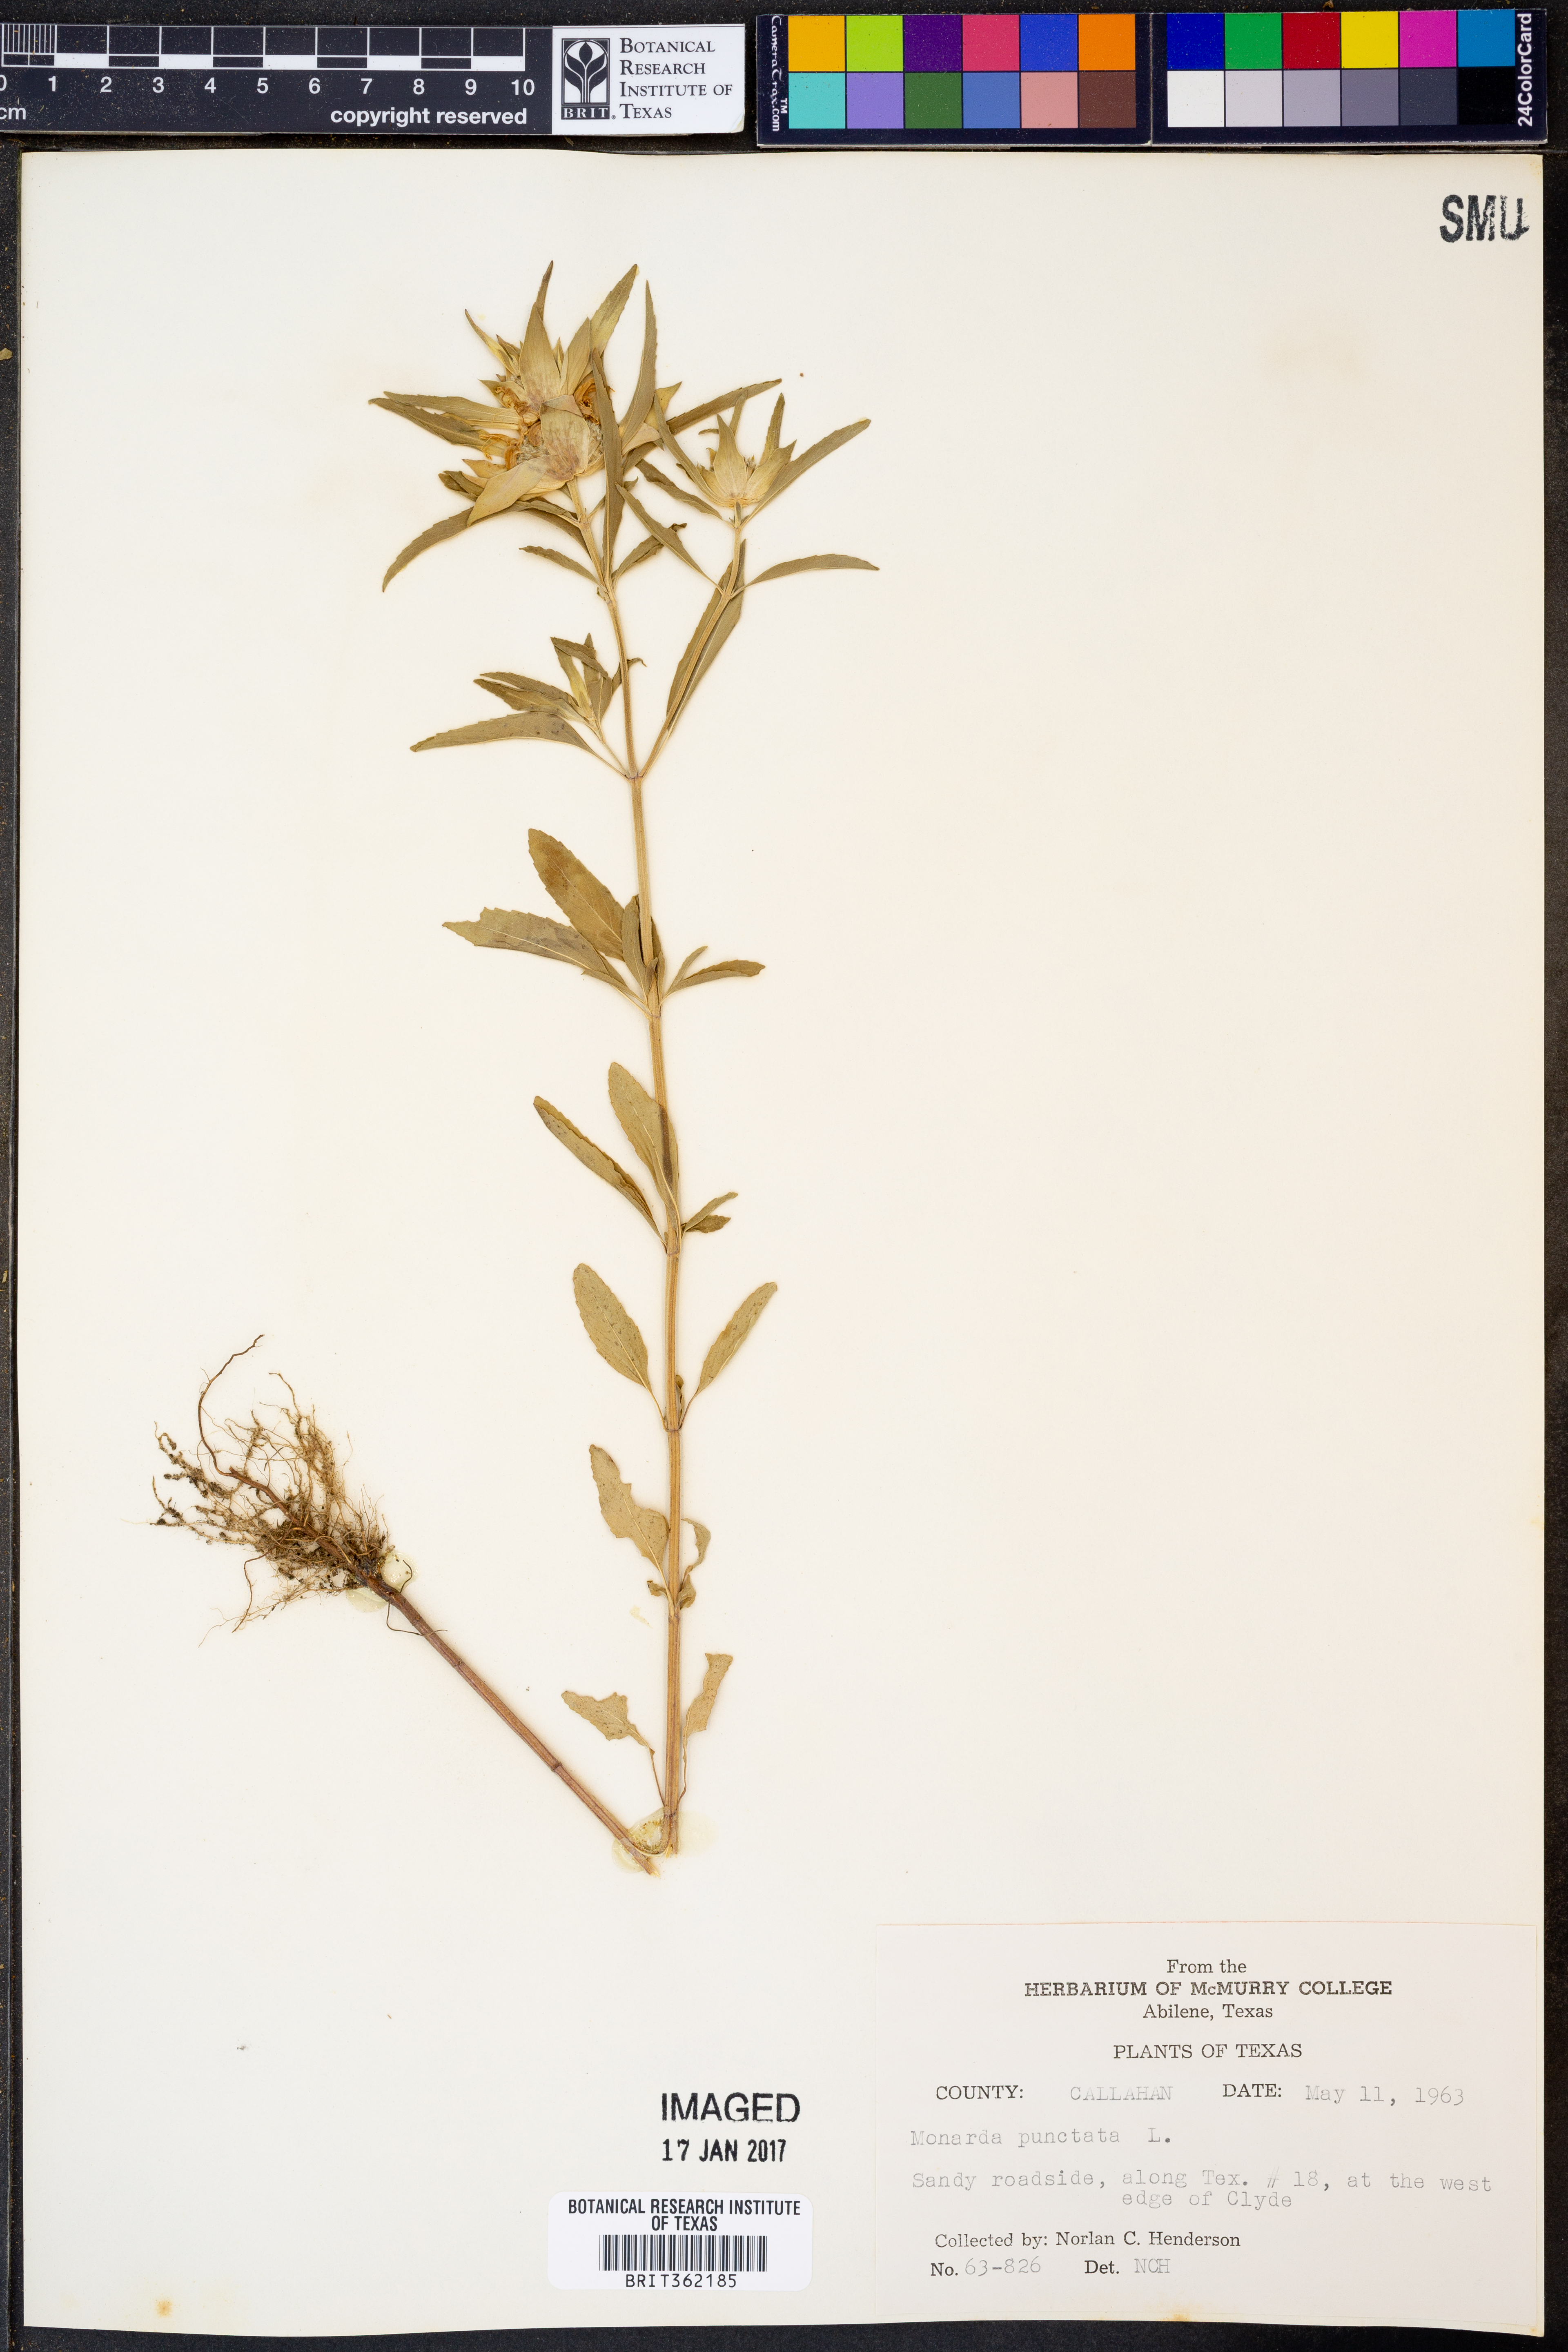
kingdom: Plantae
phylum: Tracheophyta
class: Magnoliopsida
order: Lamiales
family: Lamiaceae
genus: Monarda
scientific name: Monarda punctata
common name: Dotted monarda
